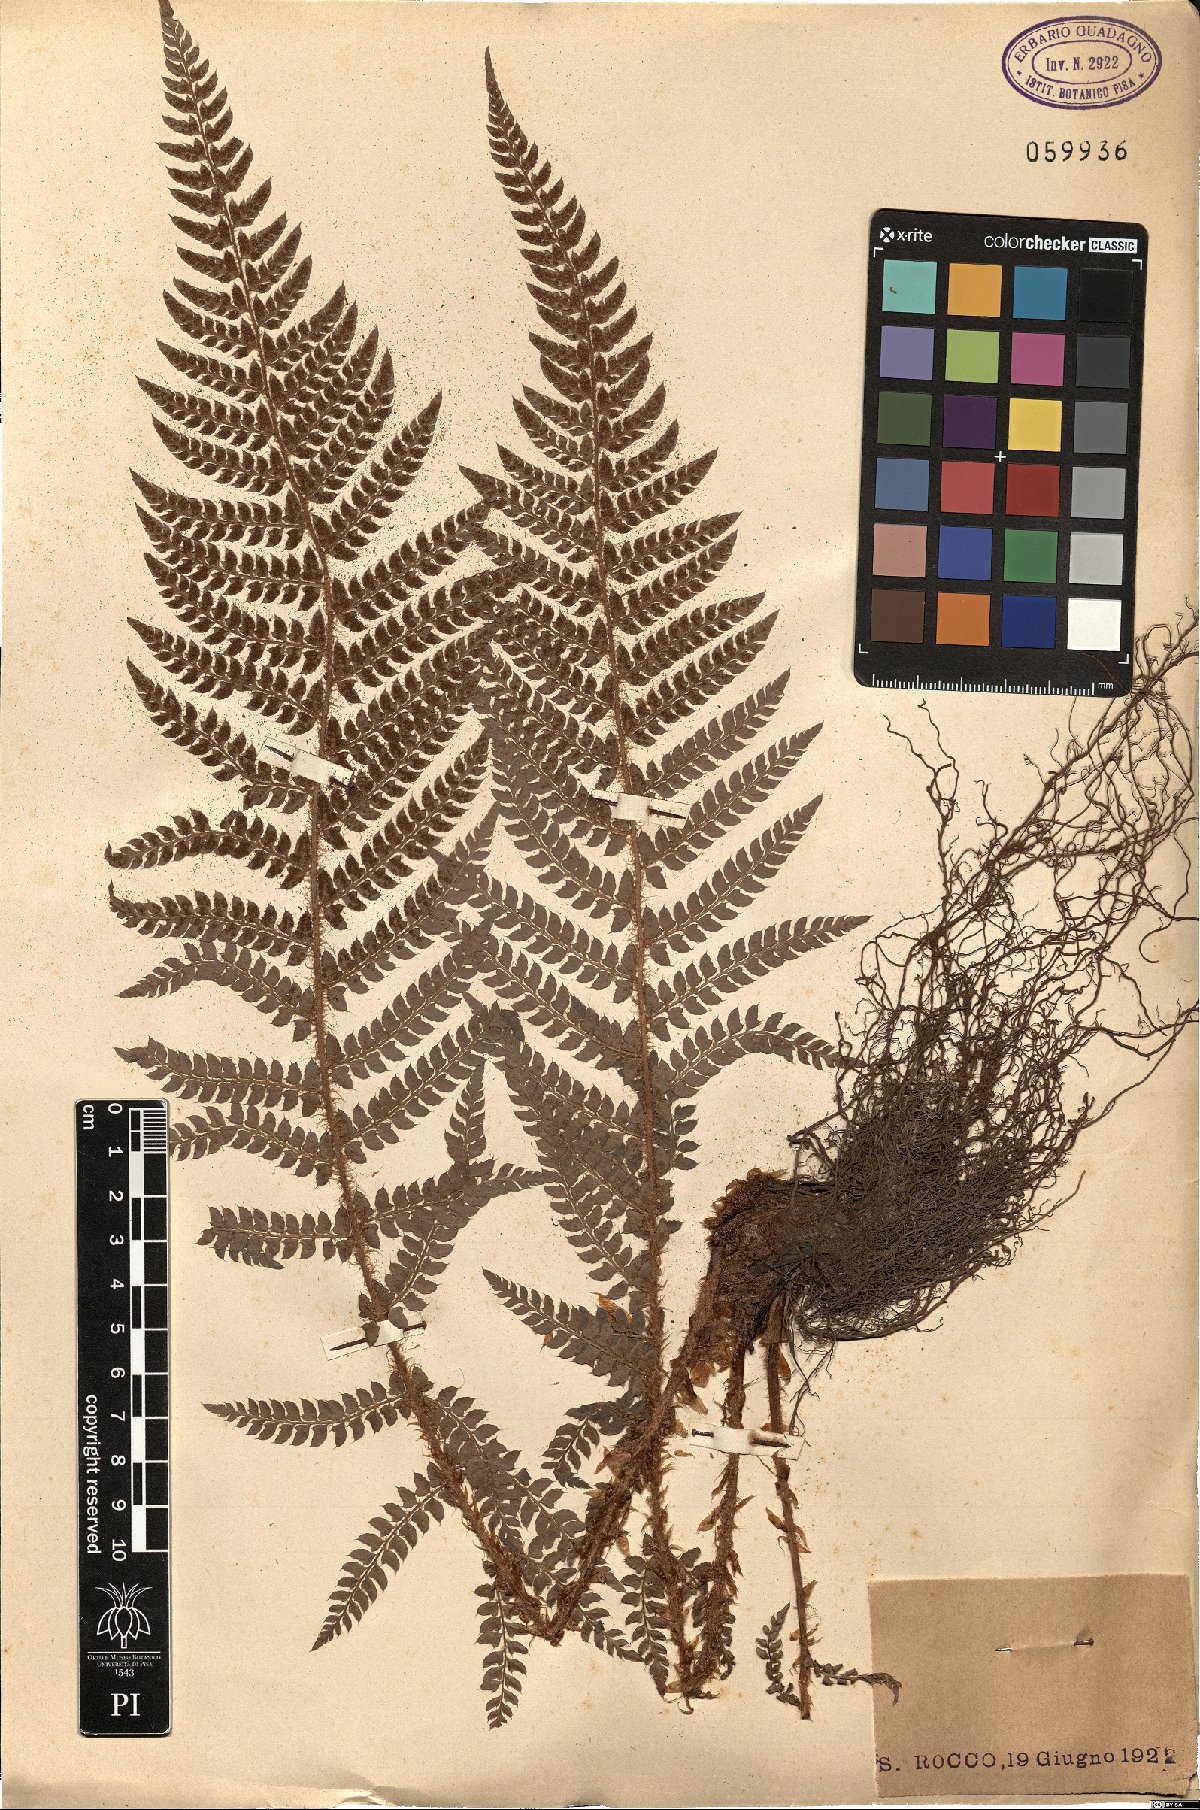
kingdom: Plantae
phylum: Tracheophyta
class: Polypodiopsida
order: Polypodiales
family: Dryopteridaceae
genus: Polystichum
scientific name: Polystichum
